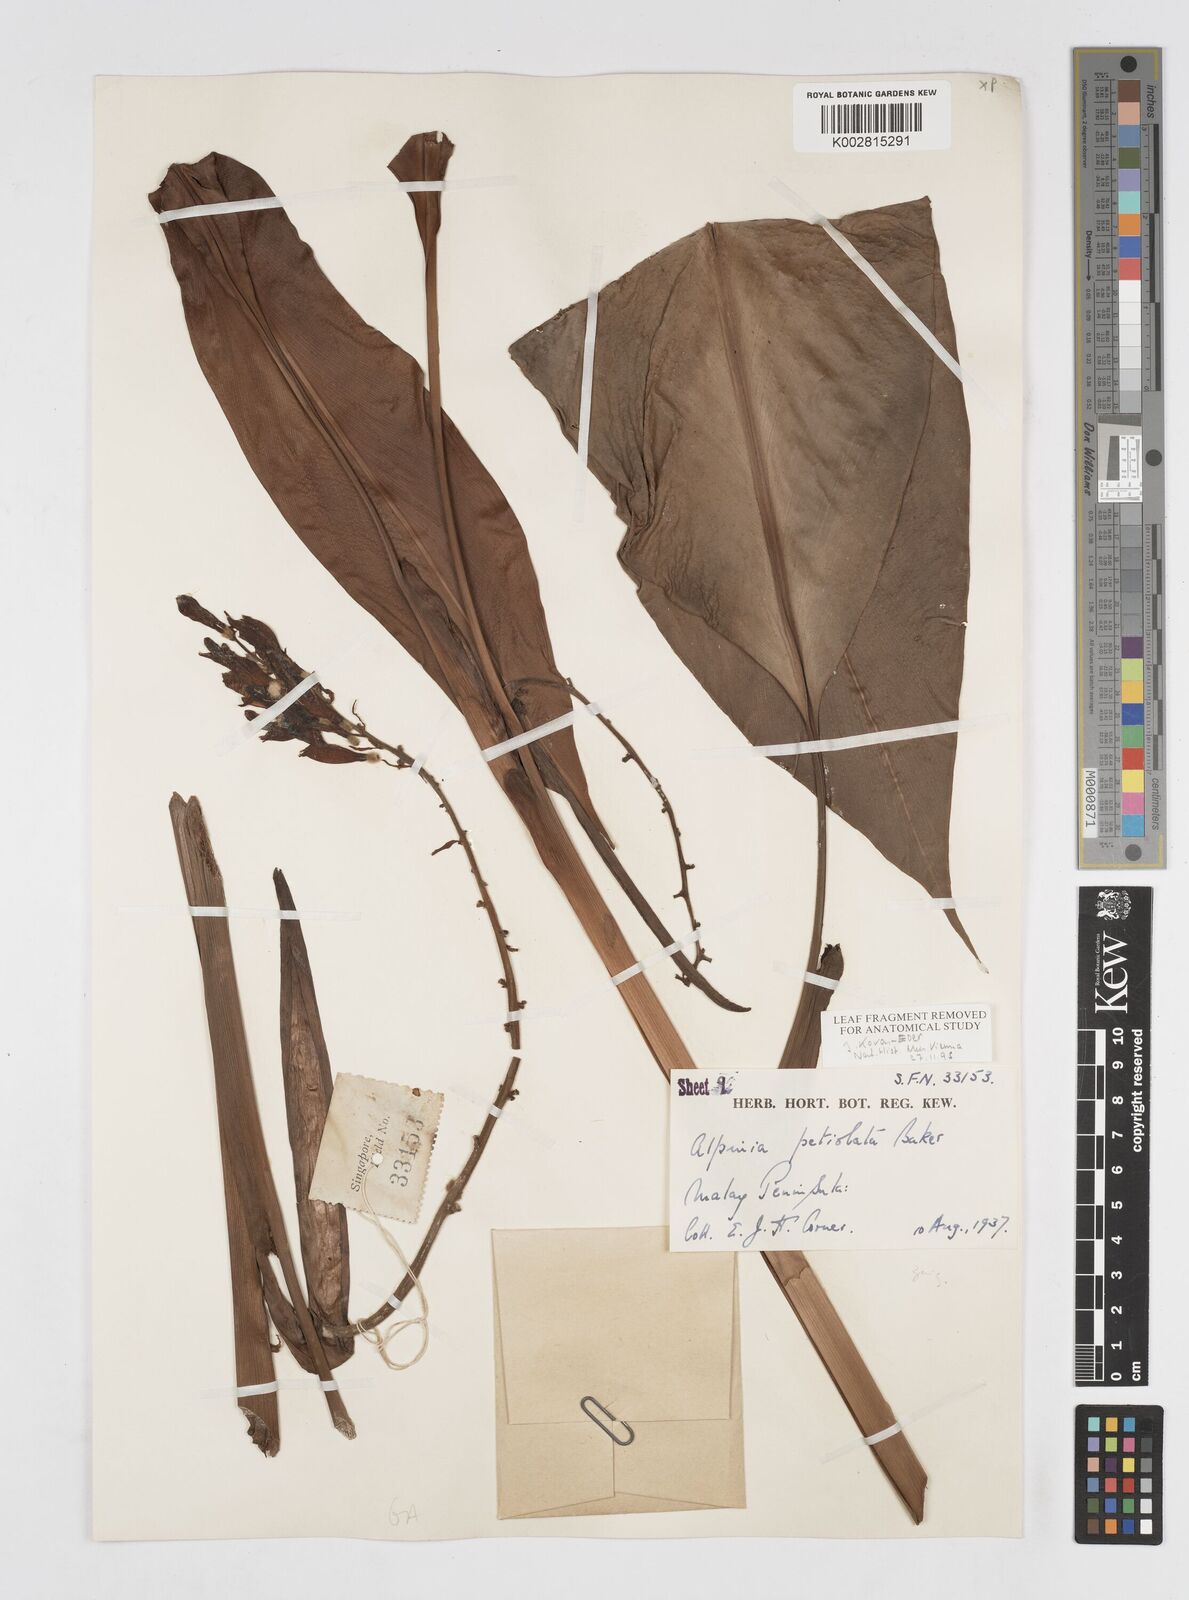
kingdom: Plantae
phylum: Tracheophyta
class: Liliopsida
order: Zingiberales
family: Zingiberaceae
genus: Alpinia
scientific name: Alpinia petiolata
